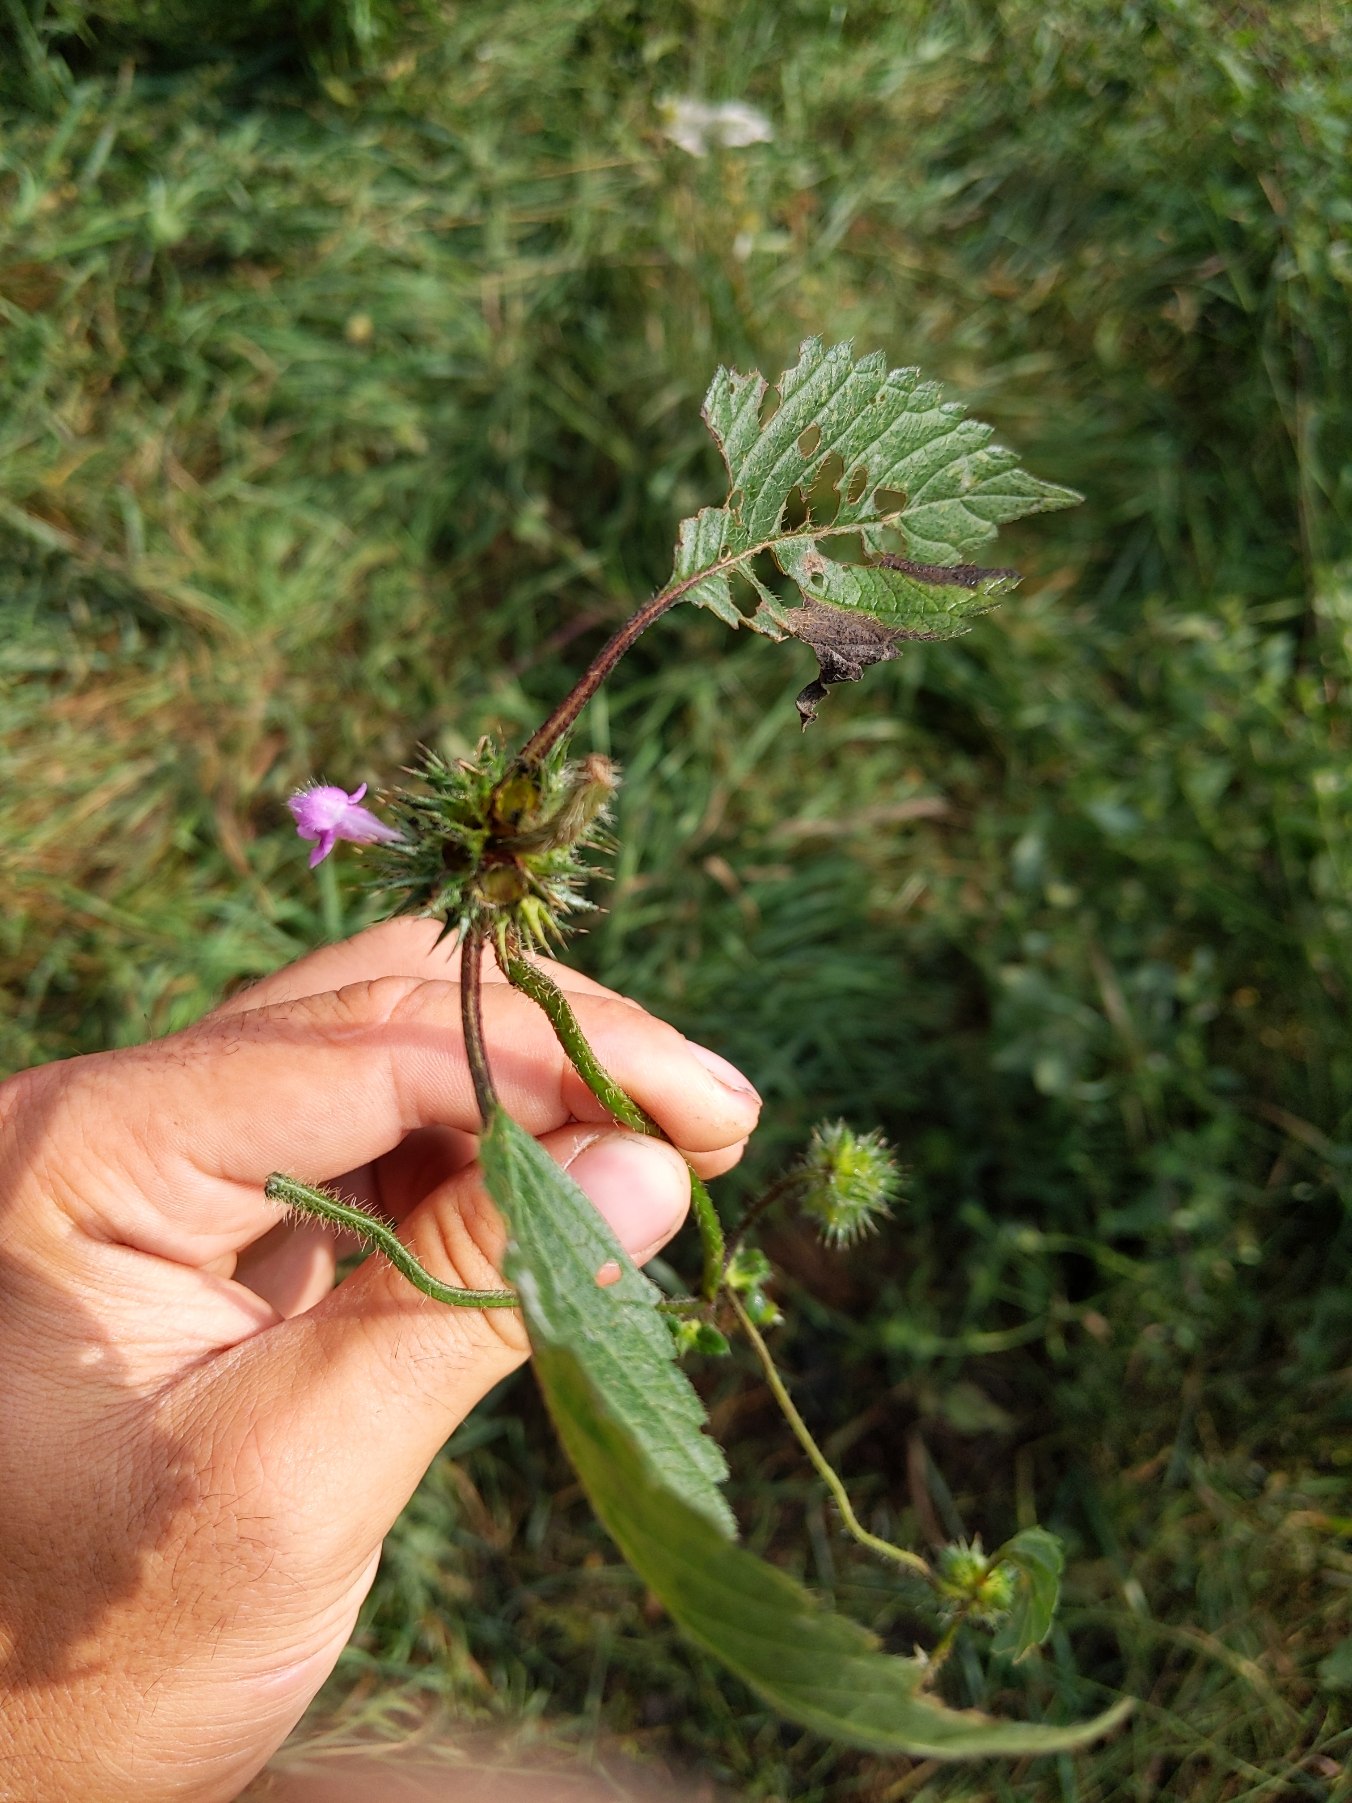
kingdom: Plantae
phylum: Tracheophyta
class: Magnoliopsida
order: Lamiales
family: Lamiaceae
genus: Galeopsis
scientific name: Galeopsis tetrahit
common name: Almindelig hanekro
